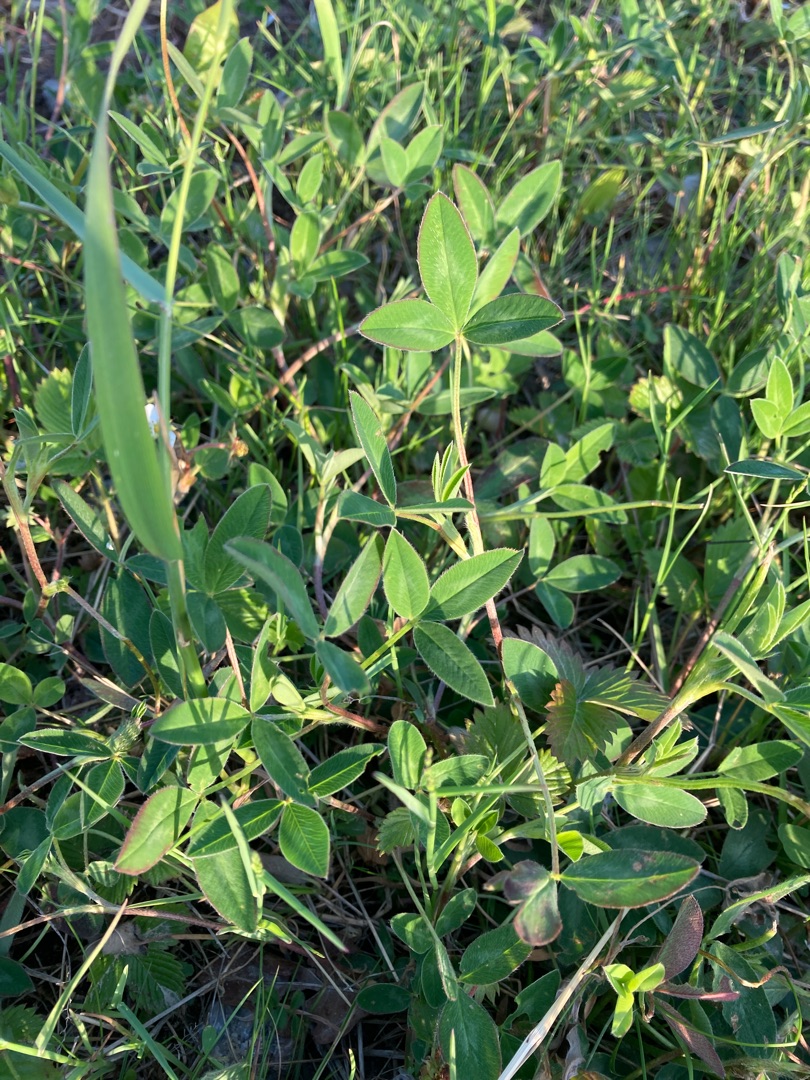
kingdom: Plantae
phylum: Tracheophyta
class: Magnoliopsida
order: Fabales
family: Fabaceae
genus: Trifolium
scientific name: Trifolium medium
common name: Bugtet kløver
